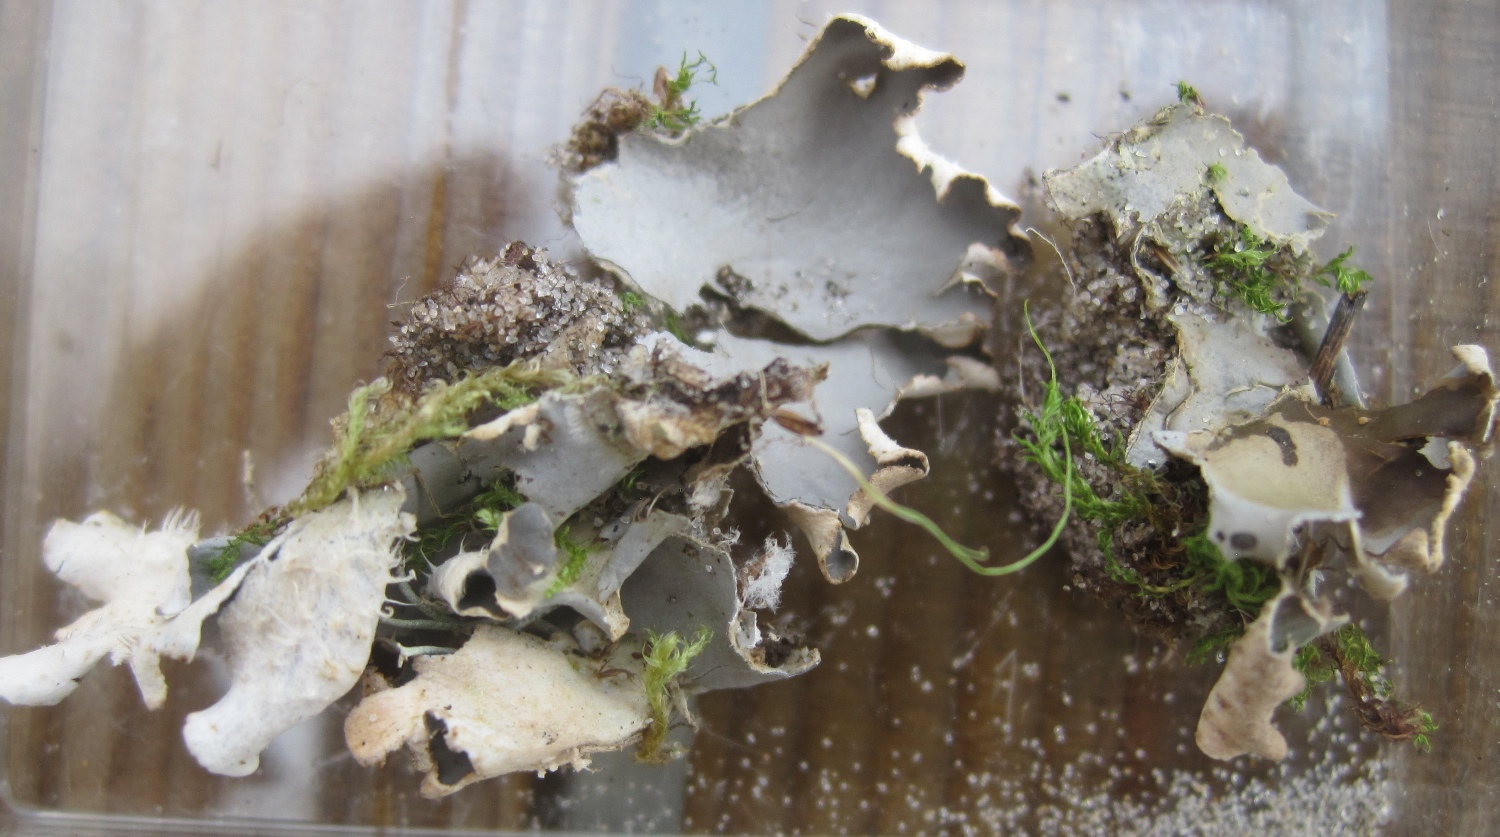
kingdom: Fungi
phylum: Ascomycota
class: Lecanoromycetes
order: Peltigerales
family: Peltigeraceae
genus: Peltigera
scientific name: Peltigera hymenina
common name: hinde-skjoldlav
